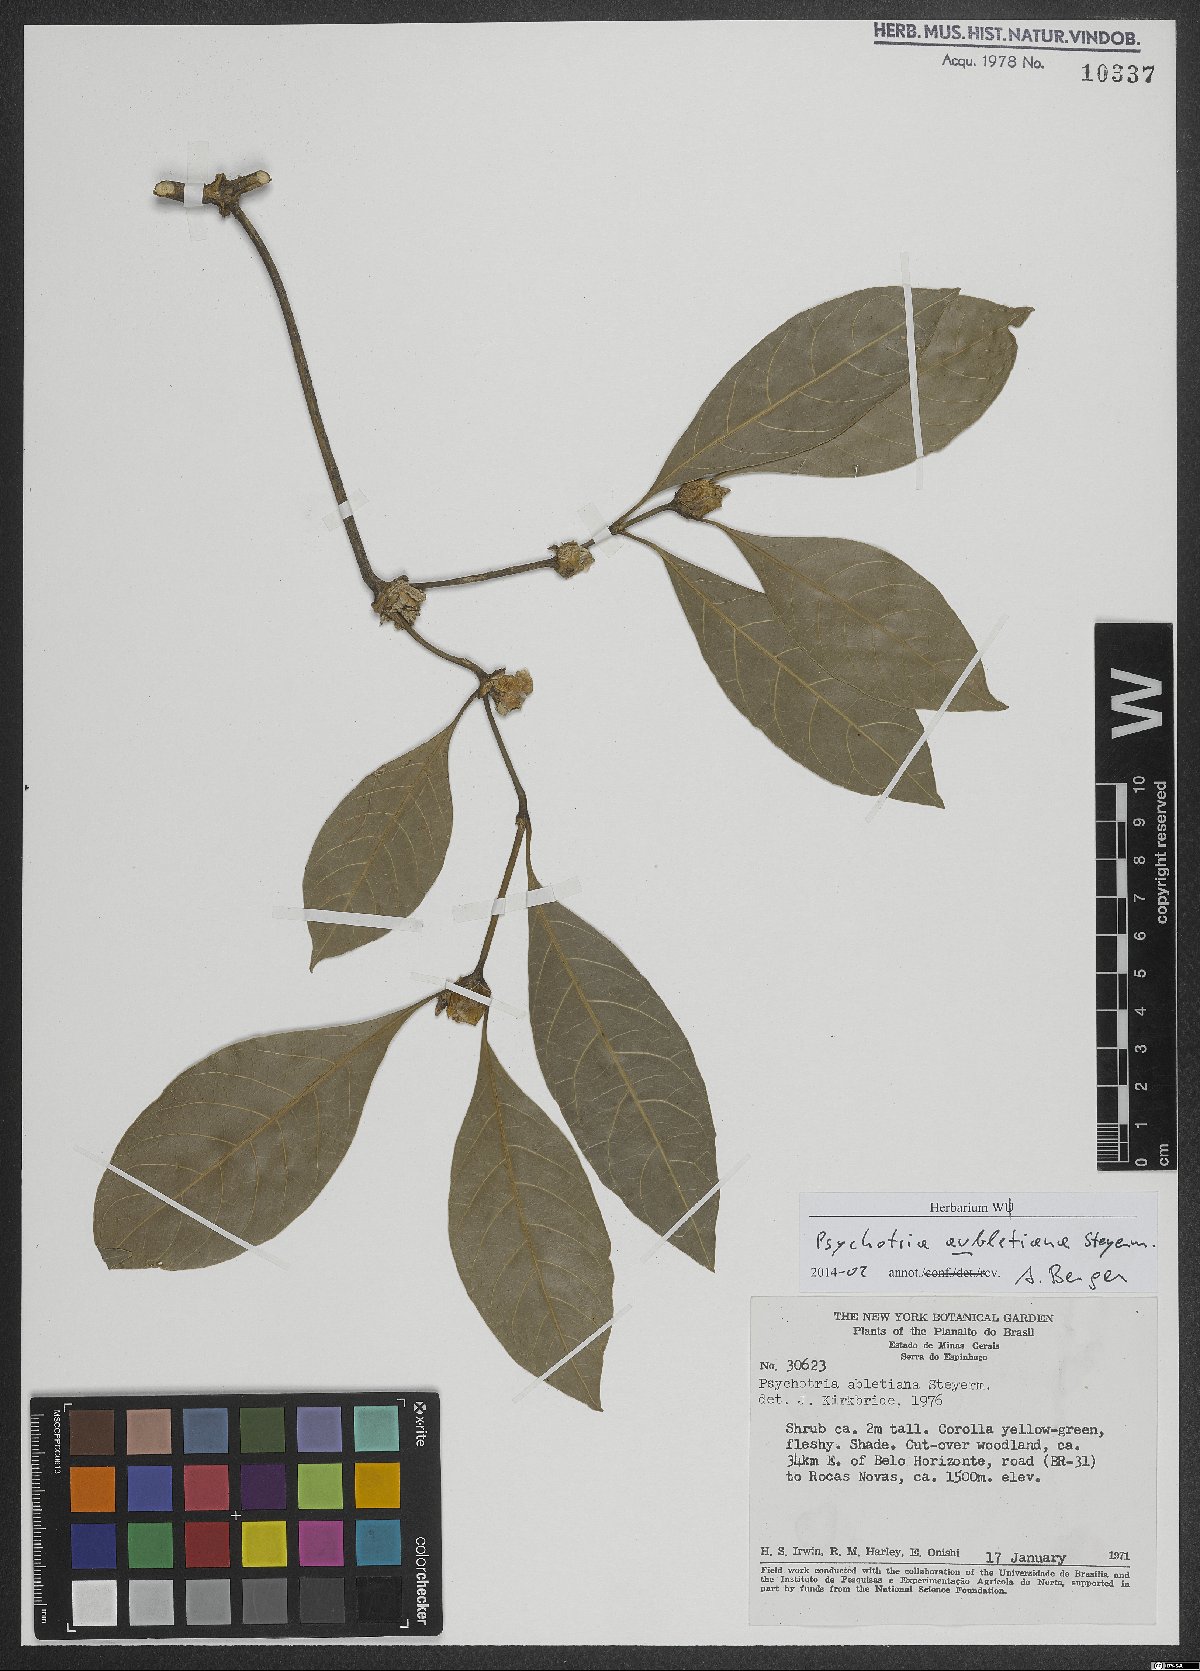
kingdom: Plantae
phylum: Tracheophyta
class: Magnoliopsida
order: Gentianales
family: Rubiaceae
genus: Palicourea
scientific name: Palicourea axillaris
